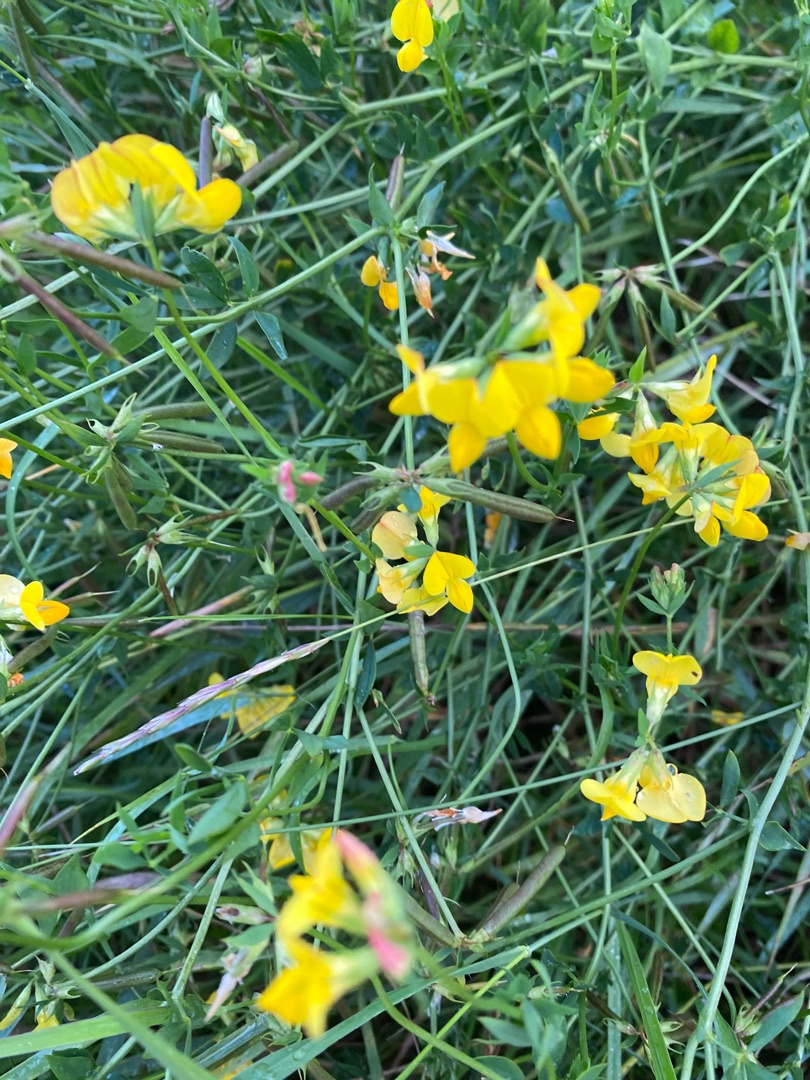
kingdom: Plantae
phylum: Tracheophyta
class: Magnoliopsida
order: Fabales
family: Fabaceae
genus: Lotus
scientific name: Lotus corniculatus
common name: Almindelig kællingetand
